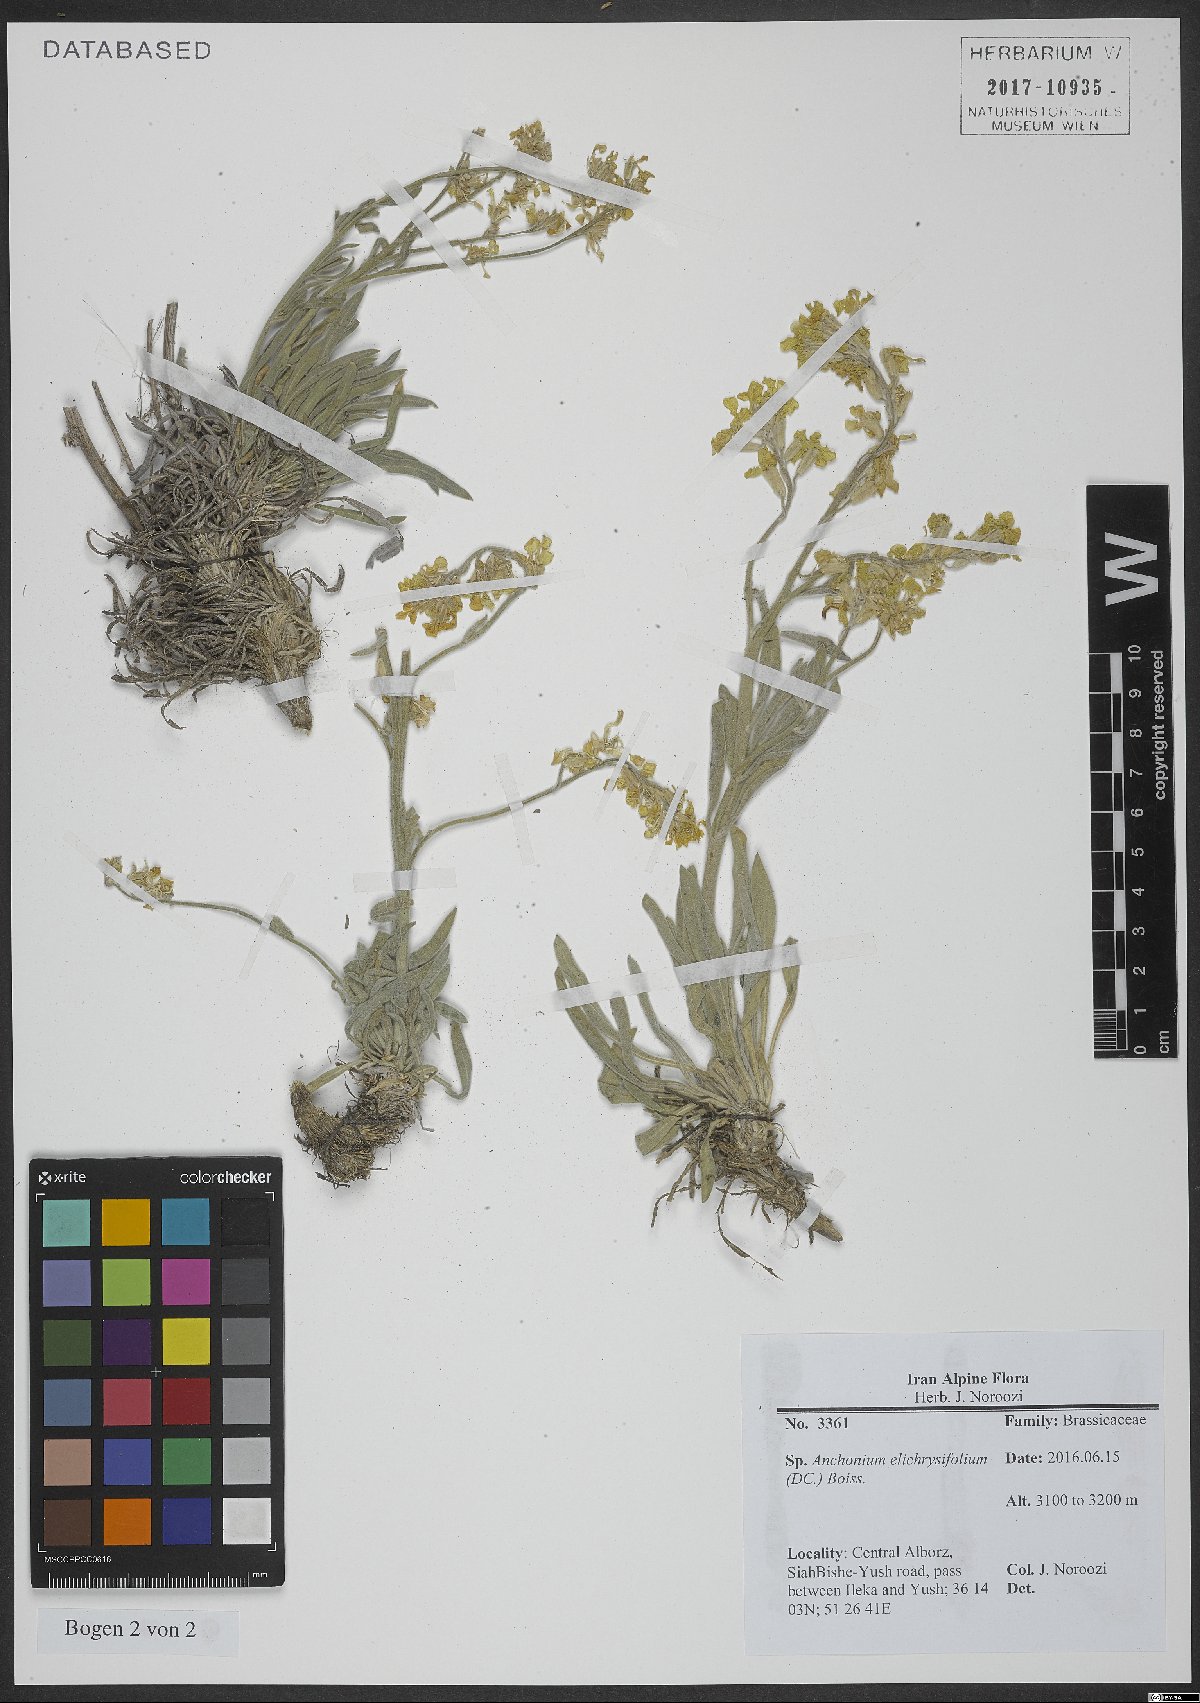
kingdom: Plantae
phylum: Tracheophyta
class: Magnoliopsida
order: Brassicales
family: Brassicaceae
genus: Anchonium
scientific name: Anchonium elichrysifolium
